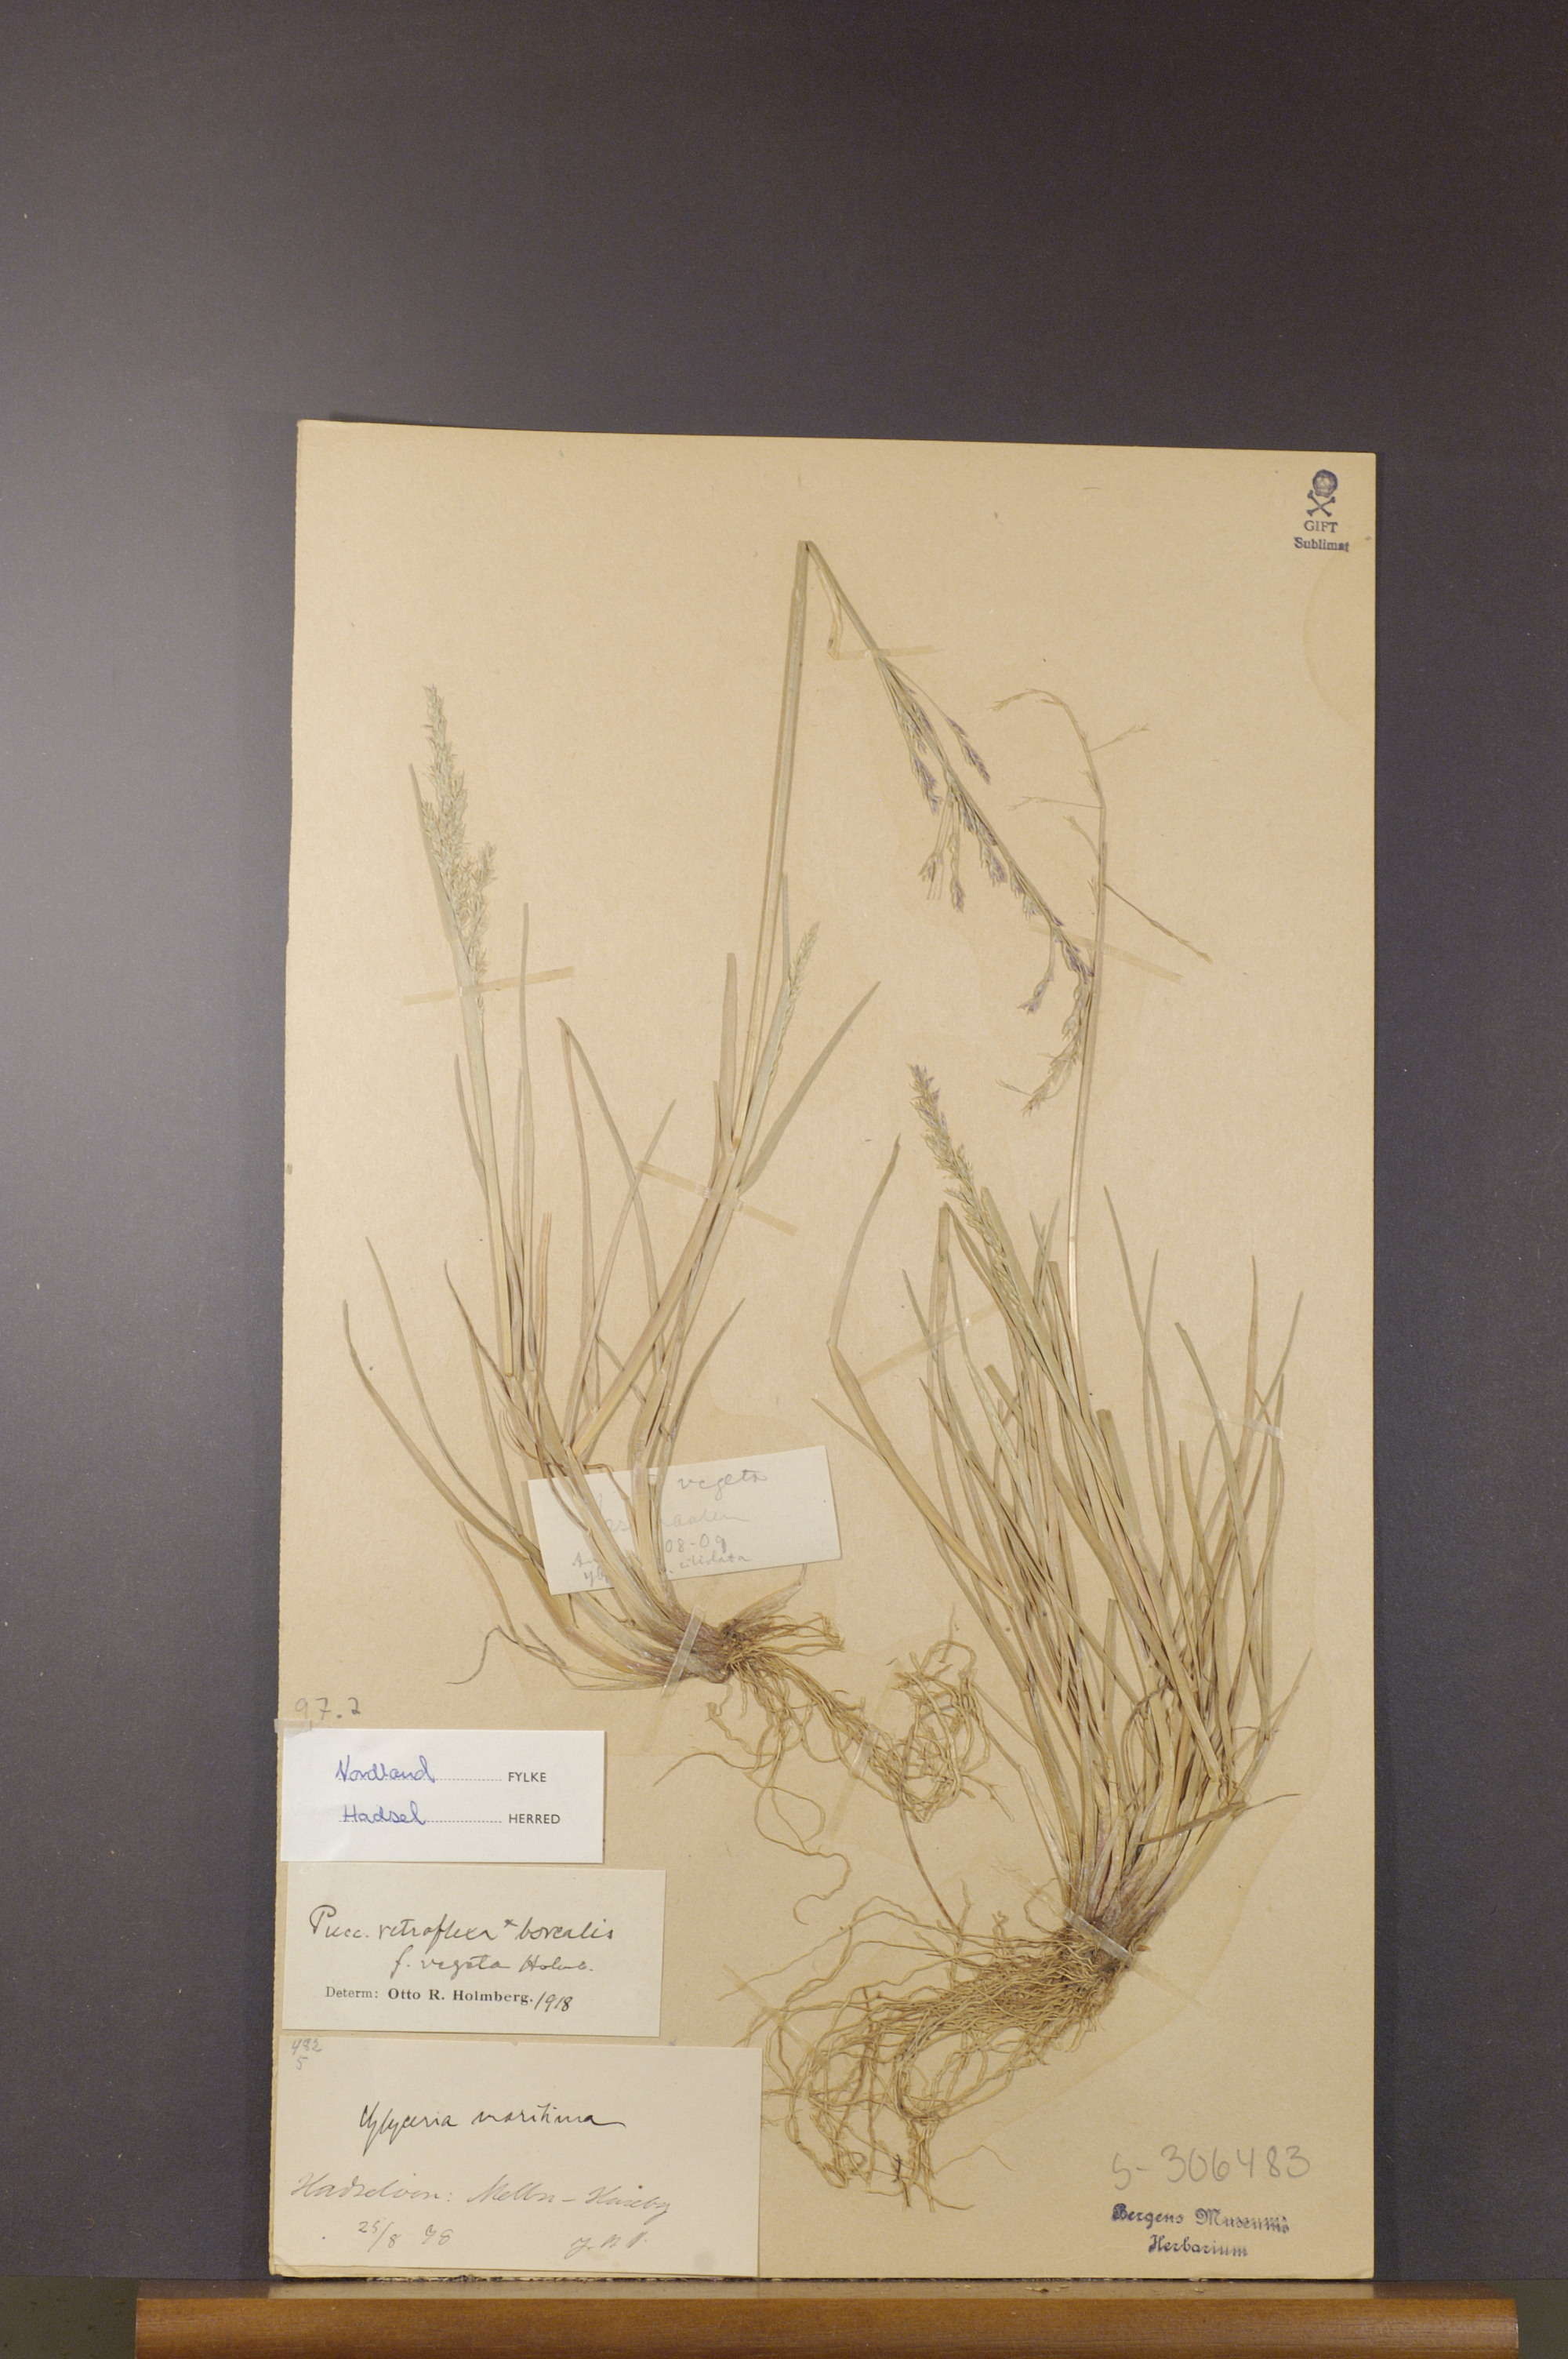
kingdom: Plantae
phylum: Tracheophyta
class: Liliopsida
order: Poales
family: Poaceae
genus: Puccinellia
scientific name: Puccinellia distans
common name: Weeping alkaligrass
